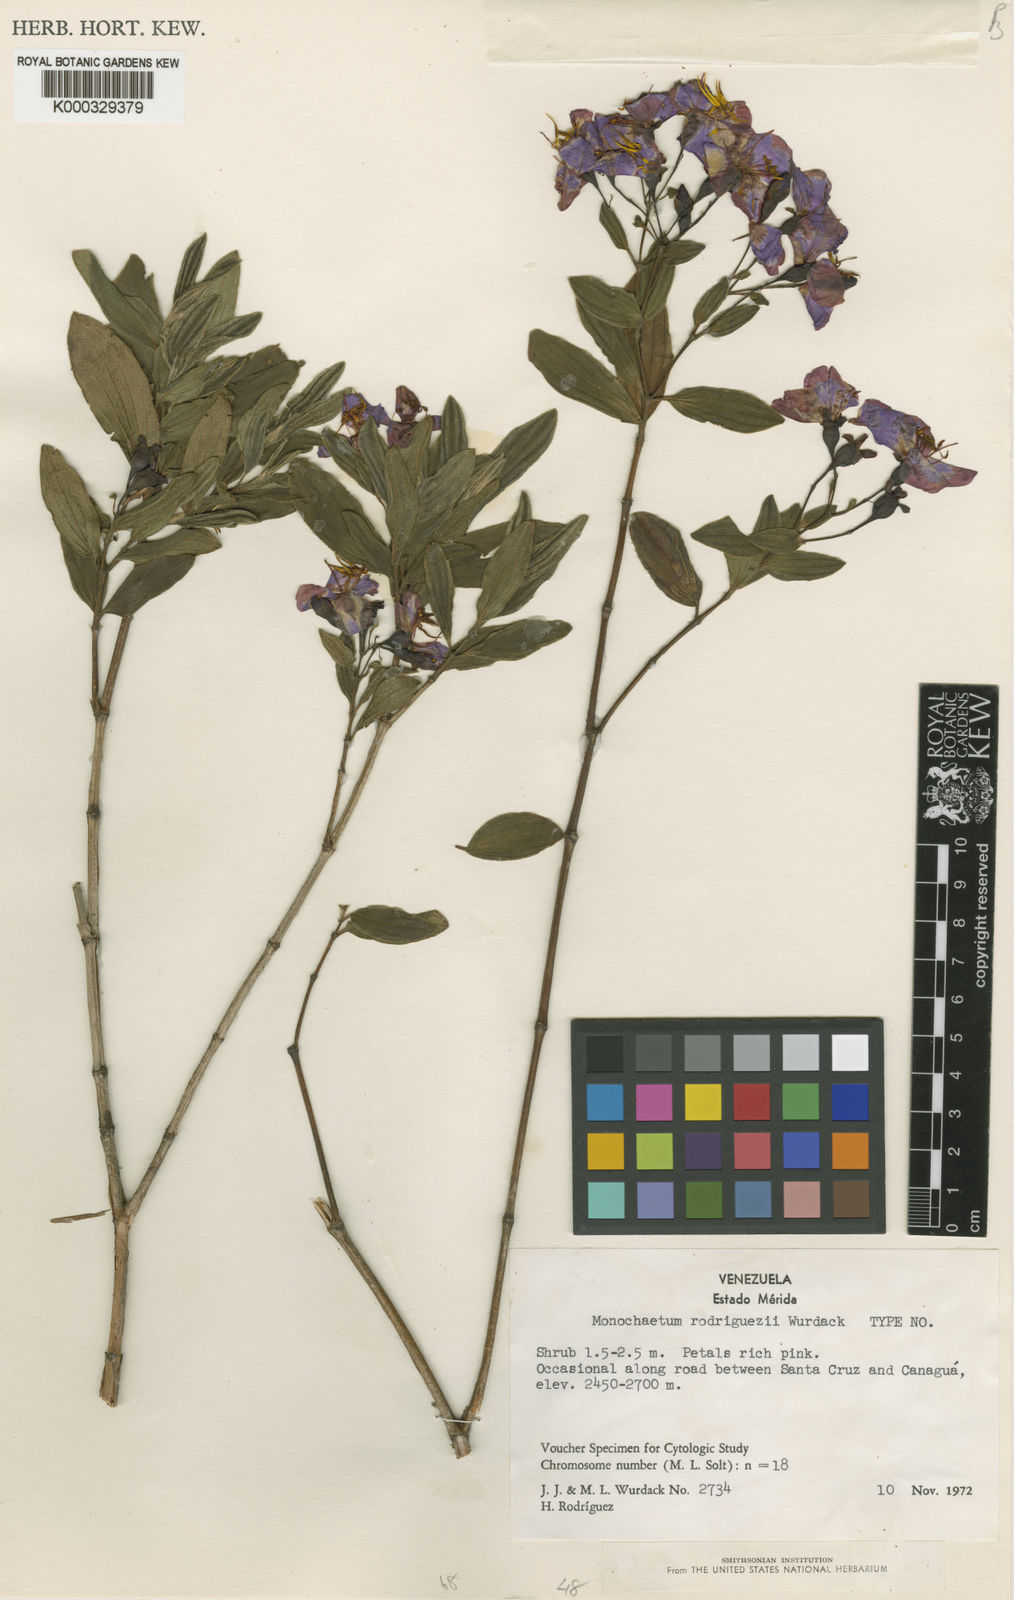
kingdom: Plantae
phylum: Tracheophyta
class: Magnoliopsida
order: Myrtales
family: Melastomataceae
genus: Monochaetum
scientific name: Monochaetum rodriguezii
